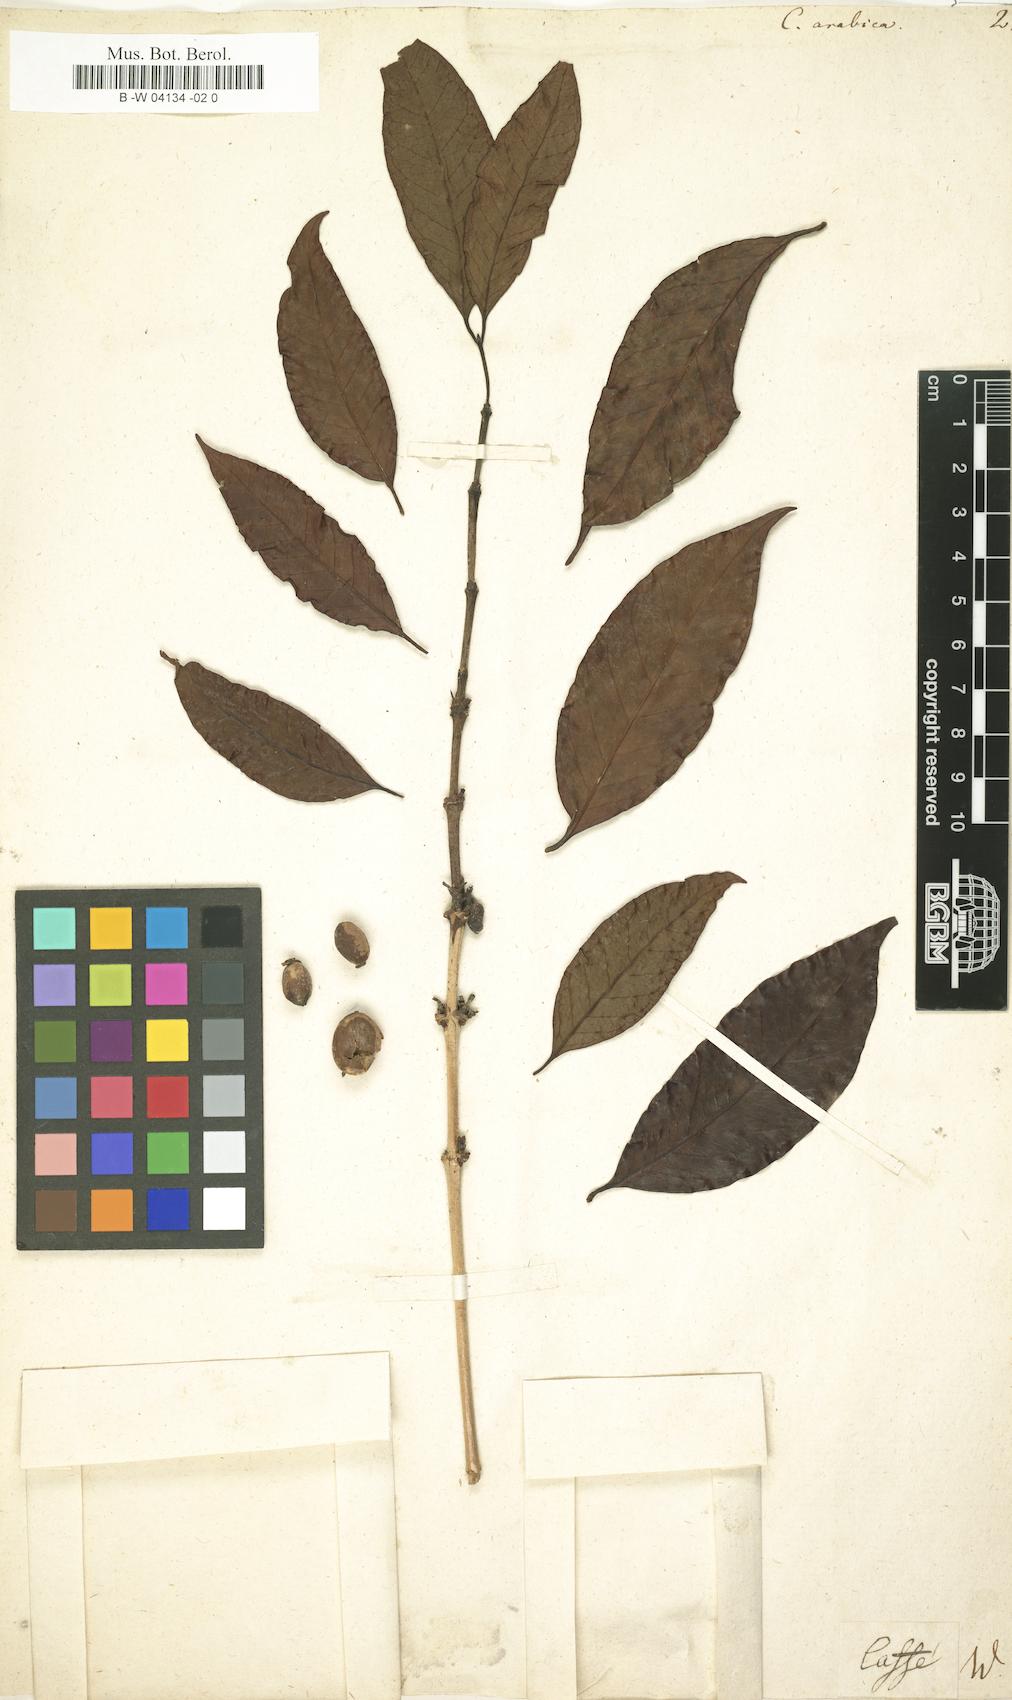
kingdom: Plantae
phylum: Tracheophyta
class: Magnoliopsida
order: Gentianales
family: Rubiaceae
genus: Coffea
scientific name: Coffea arabica
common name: Coffee
